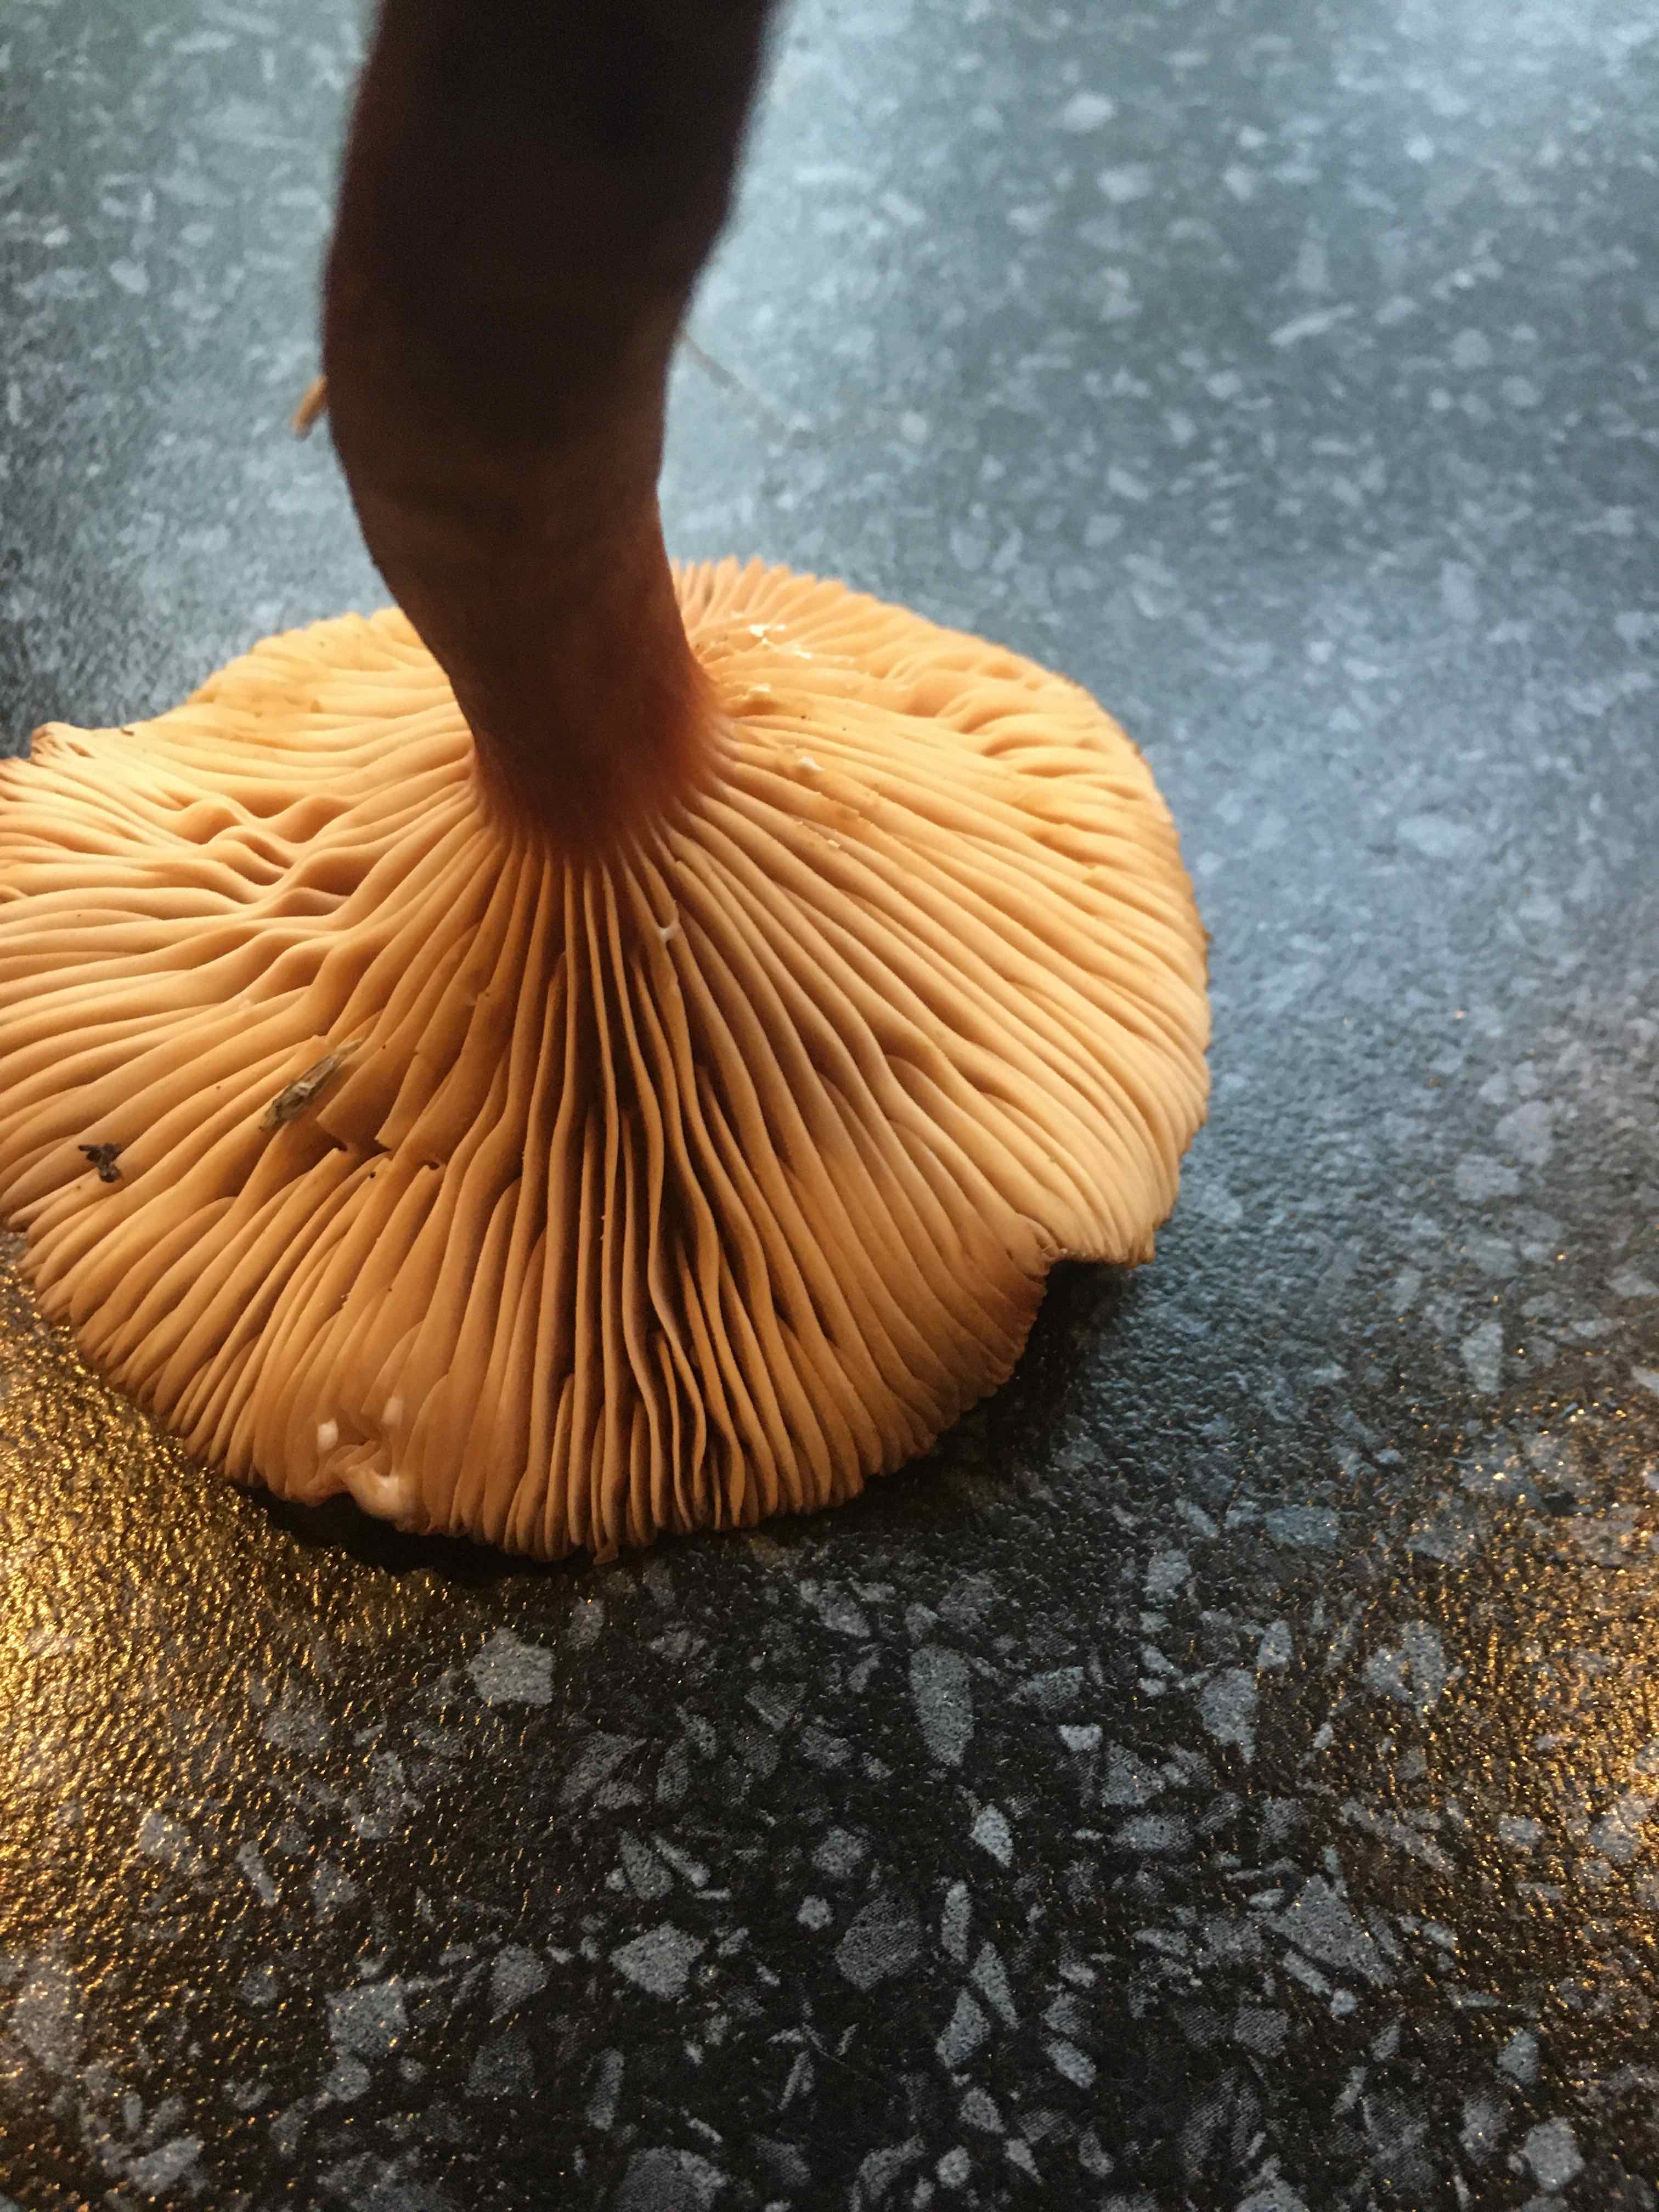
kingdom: Fungi
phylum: Basidiomycota
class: Agaricomycetes
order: Russulales
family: Russulaceae
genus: Lactarius
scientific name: Lactarius
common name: mælkehat
